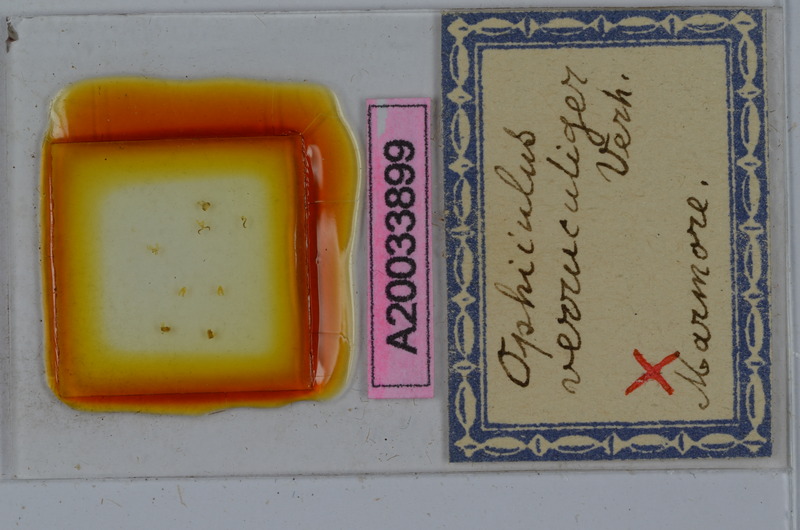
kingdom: Animalia
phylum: Arthropoda
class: Diplopoda
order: Julida
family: Julidae
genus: Ophyiulus
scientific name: Ophyiulus targionii
